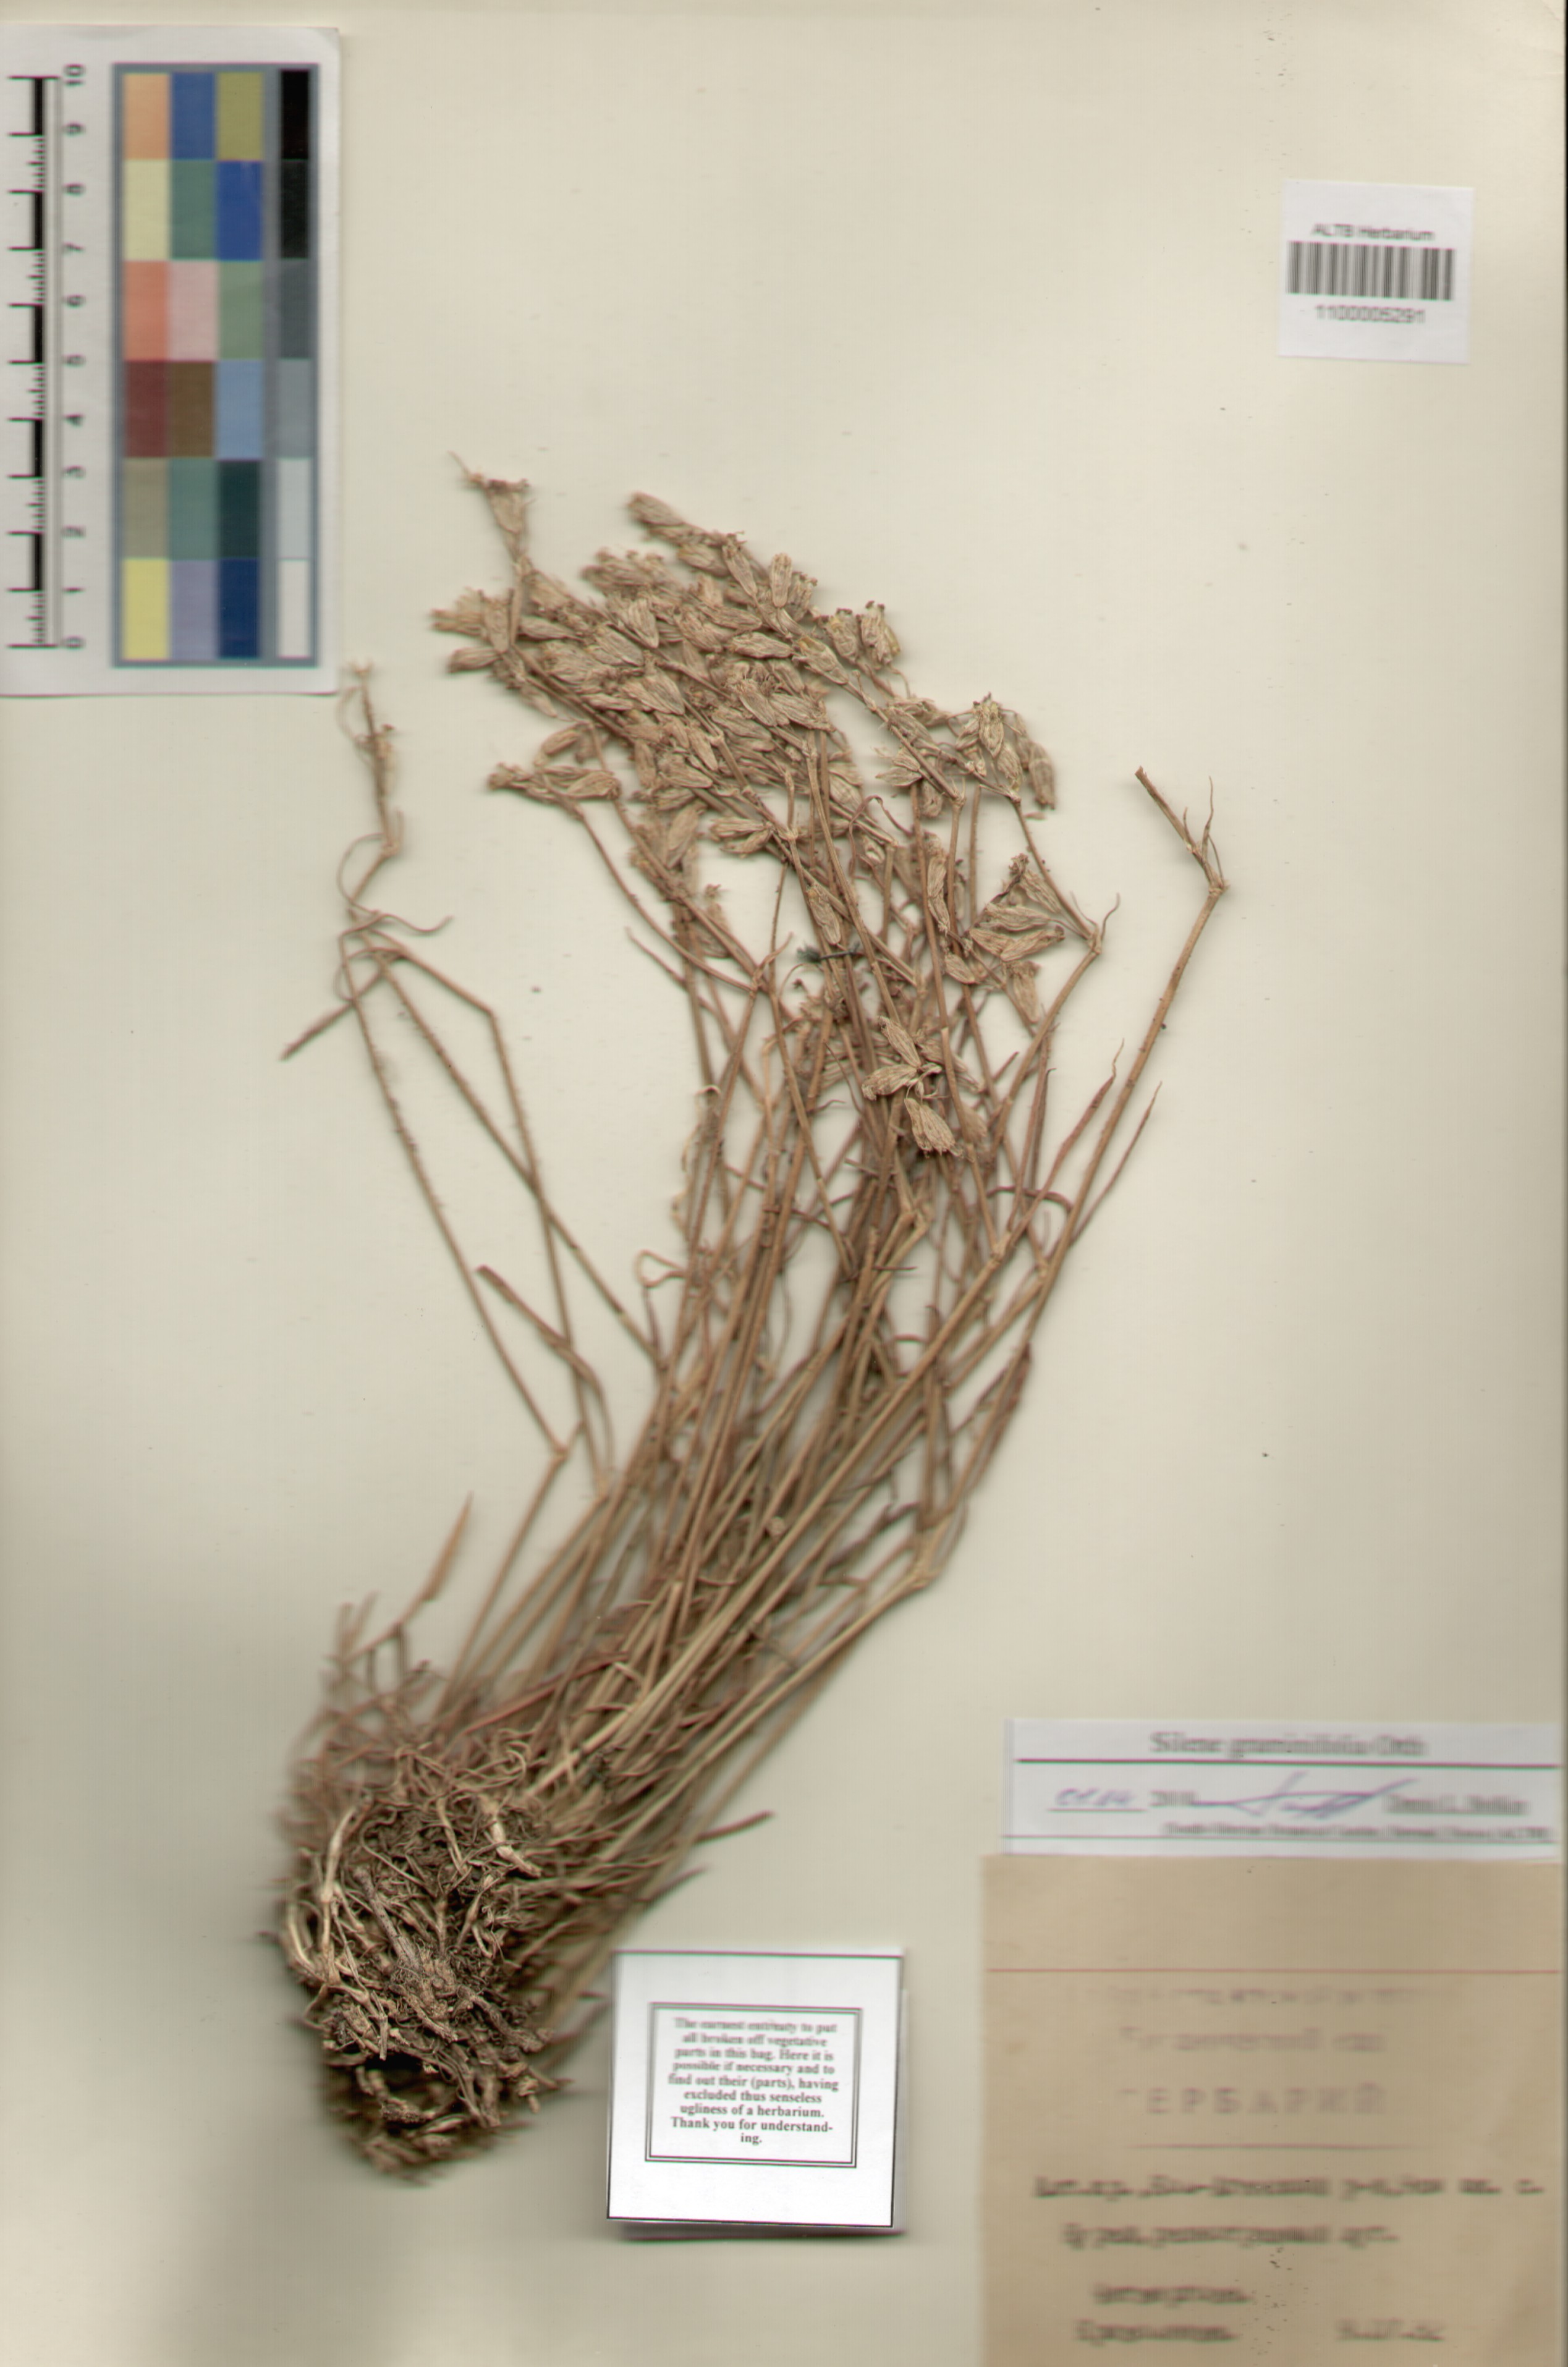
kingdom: Plantae
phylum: Tracheophyta
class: Magnoliopsida
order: Caryophyllales
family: Caryophyllaceae
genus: Silene
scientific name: Silene graminifolia
